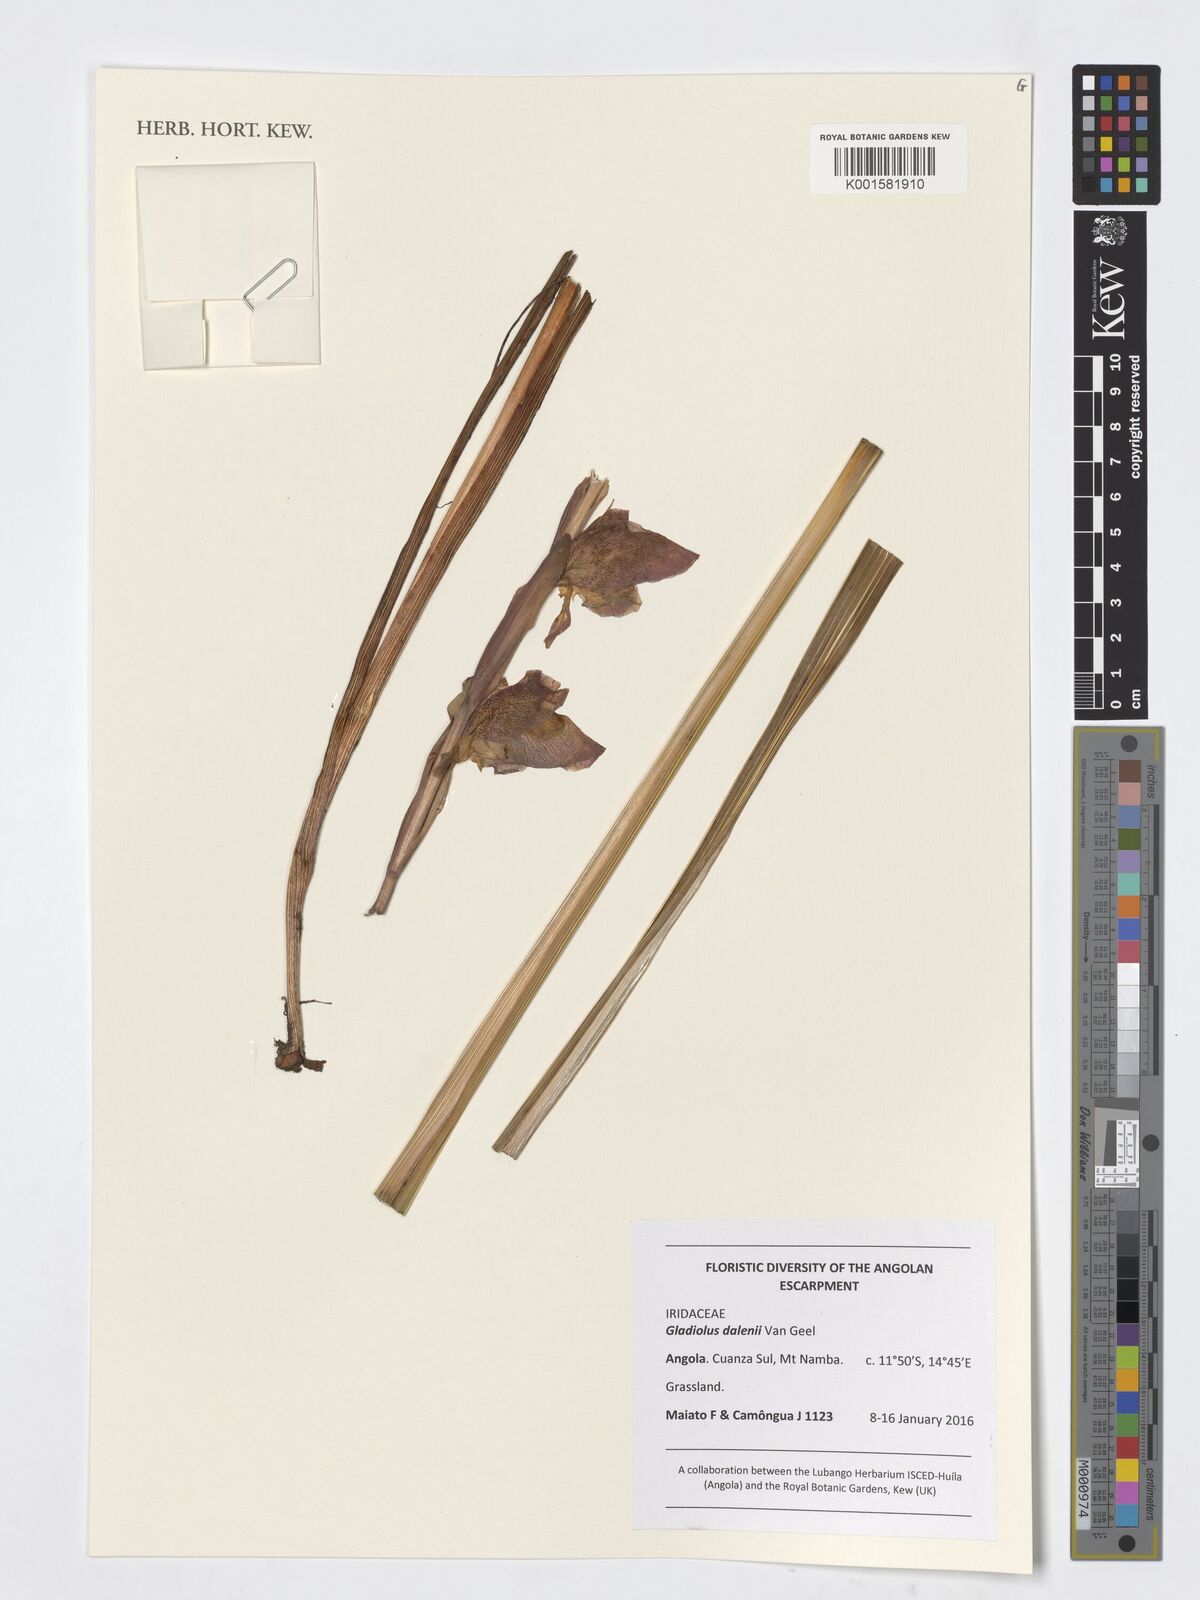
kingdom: Plantae
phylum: Tracheophyta
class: Liliopsida
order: Asparagales
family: Iridaceae
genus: Gladiolus
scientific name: Gladiolus dalenii
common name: Cornflag
